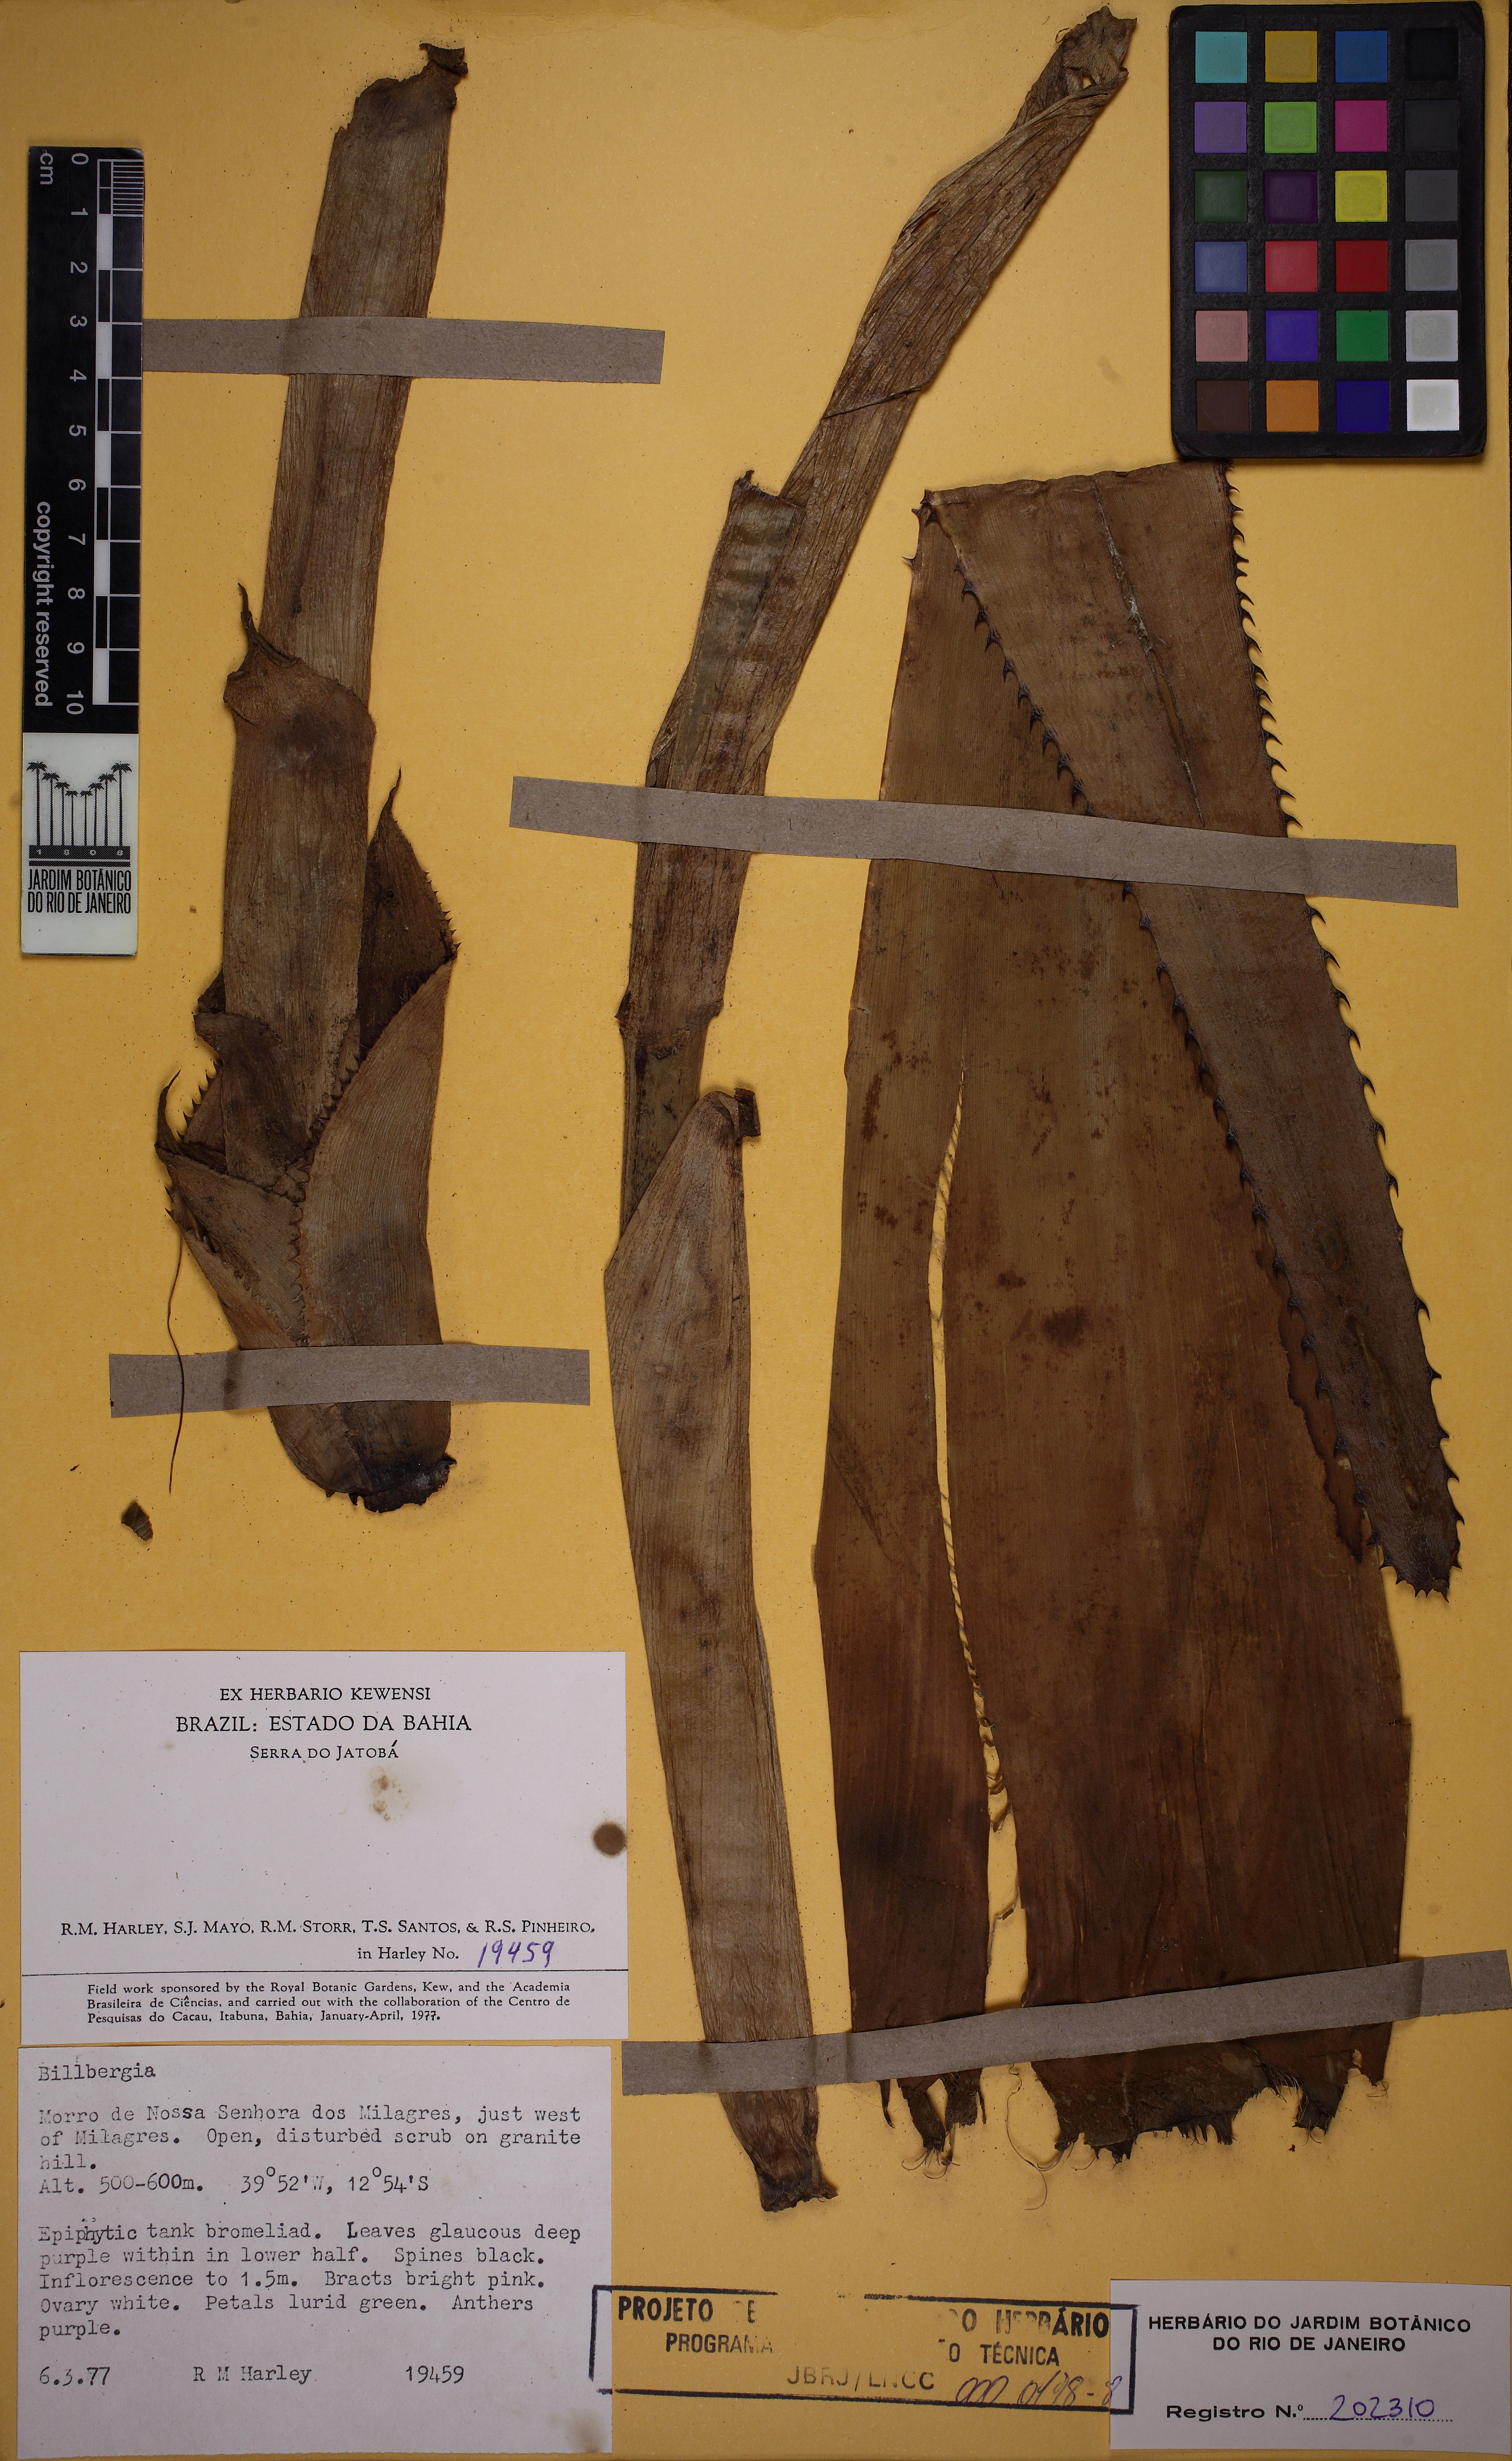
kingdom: Plantae
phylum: Tracheophyta
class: Liliopsida
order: Poales
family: Bromeliaceae
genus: Billbergia
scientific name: Billbergia porteana
